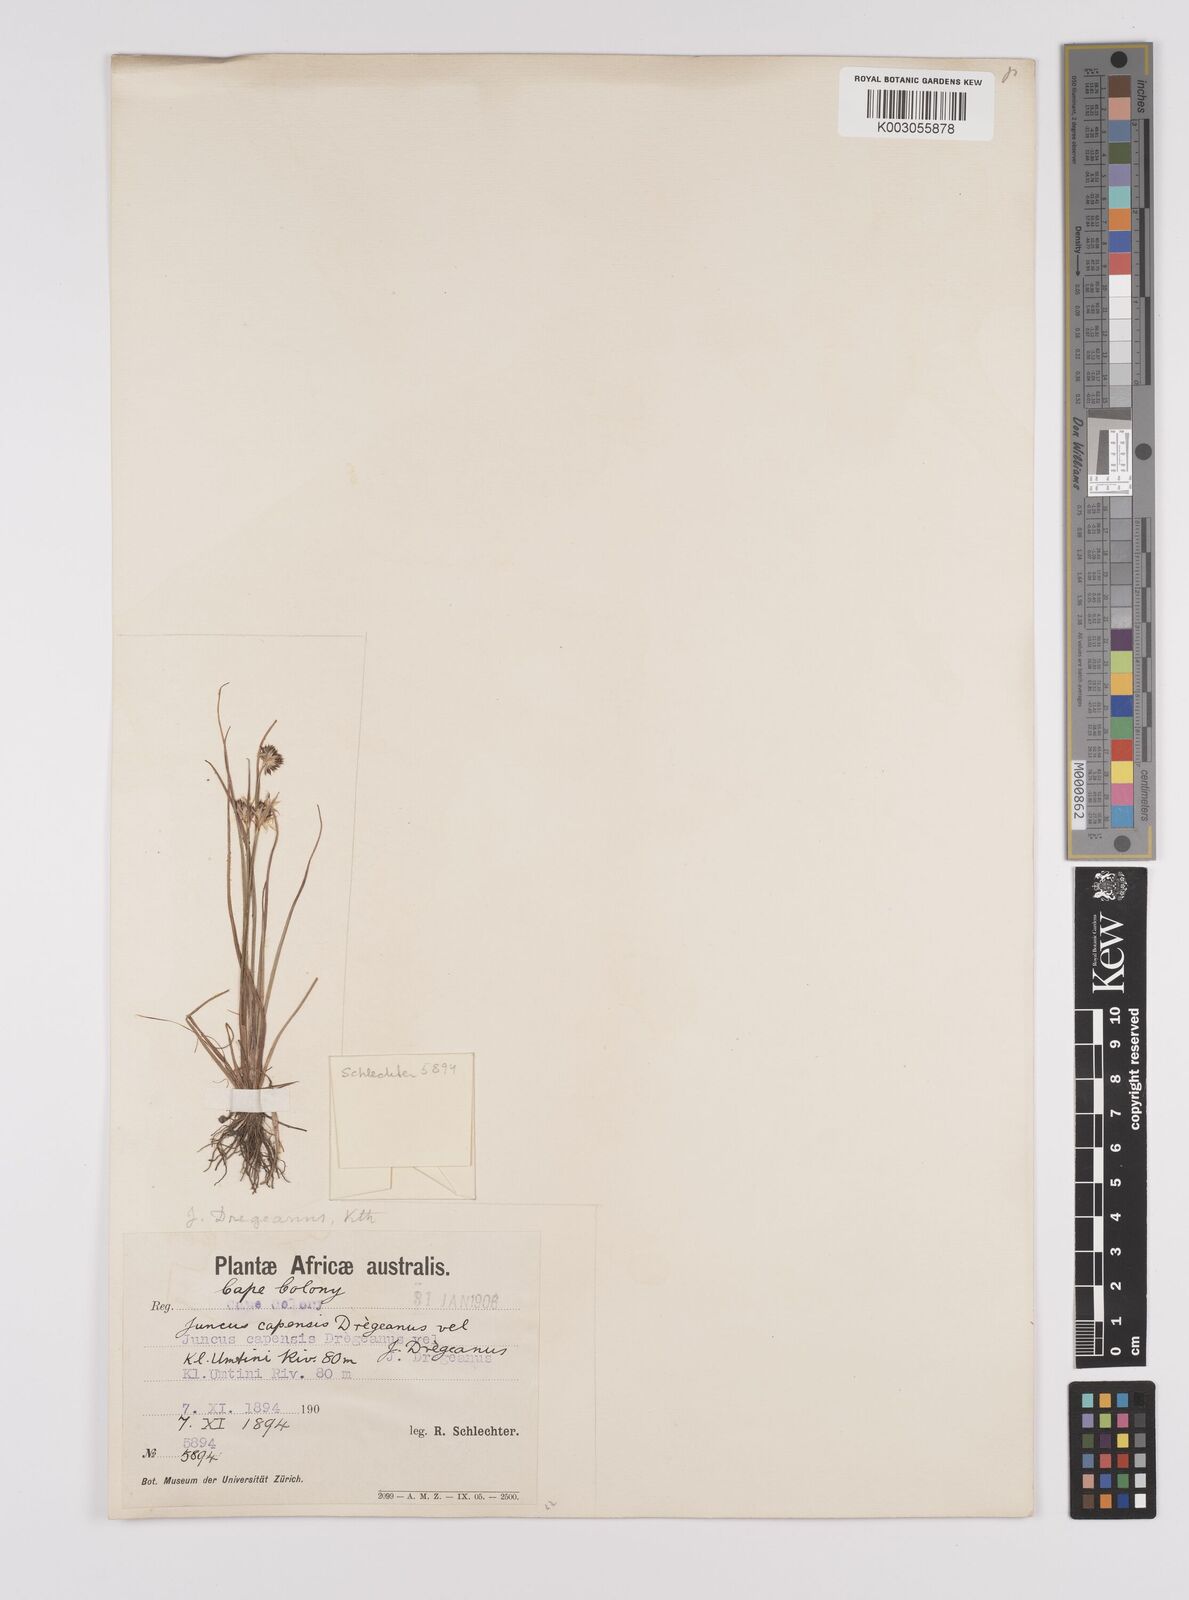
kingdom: Plantae
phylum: Tracheophyta
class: Liliopsida
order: Poales
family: Juncaceae
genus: Juncus
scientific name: Juncus dregeanus
